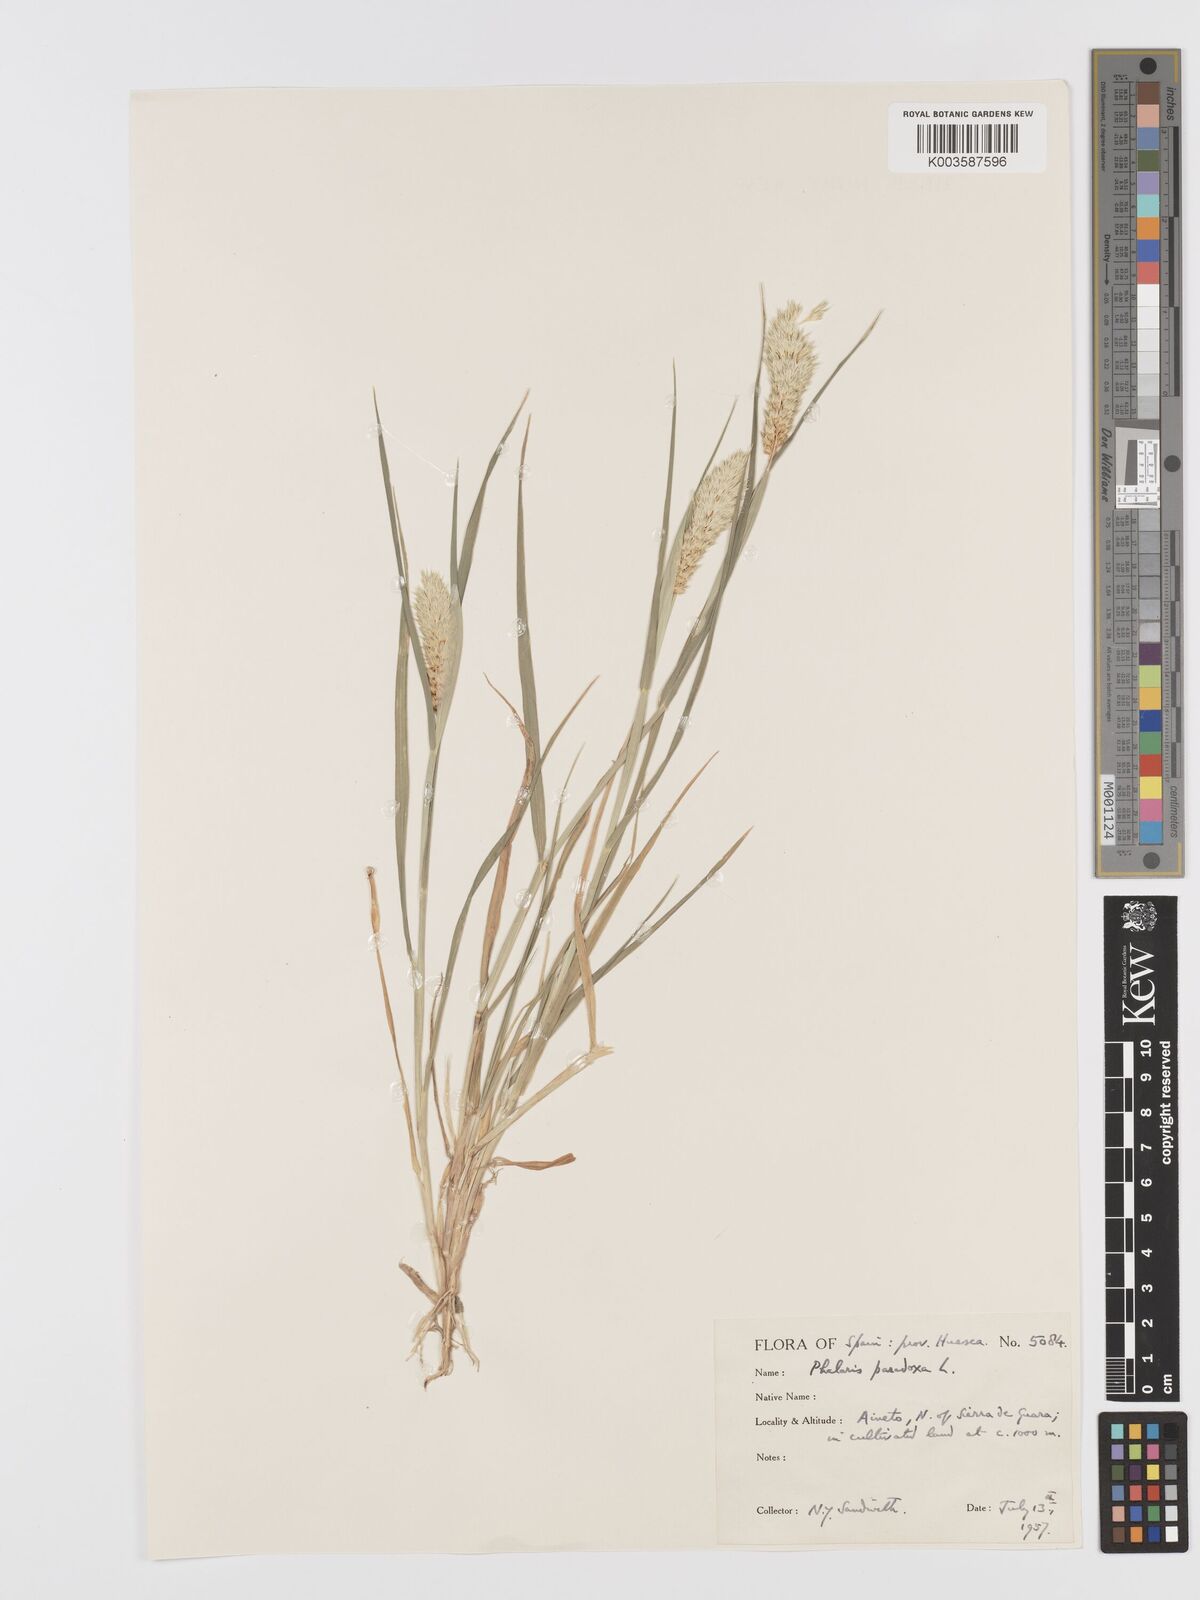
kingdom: Plantae
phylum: Tracheophyta
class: Liliopsida
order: Poales
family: Poaceae
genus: Phalaris
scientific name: Phalaris paradoxa
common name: Awned canary-grass
